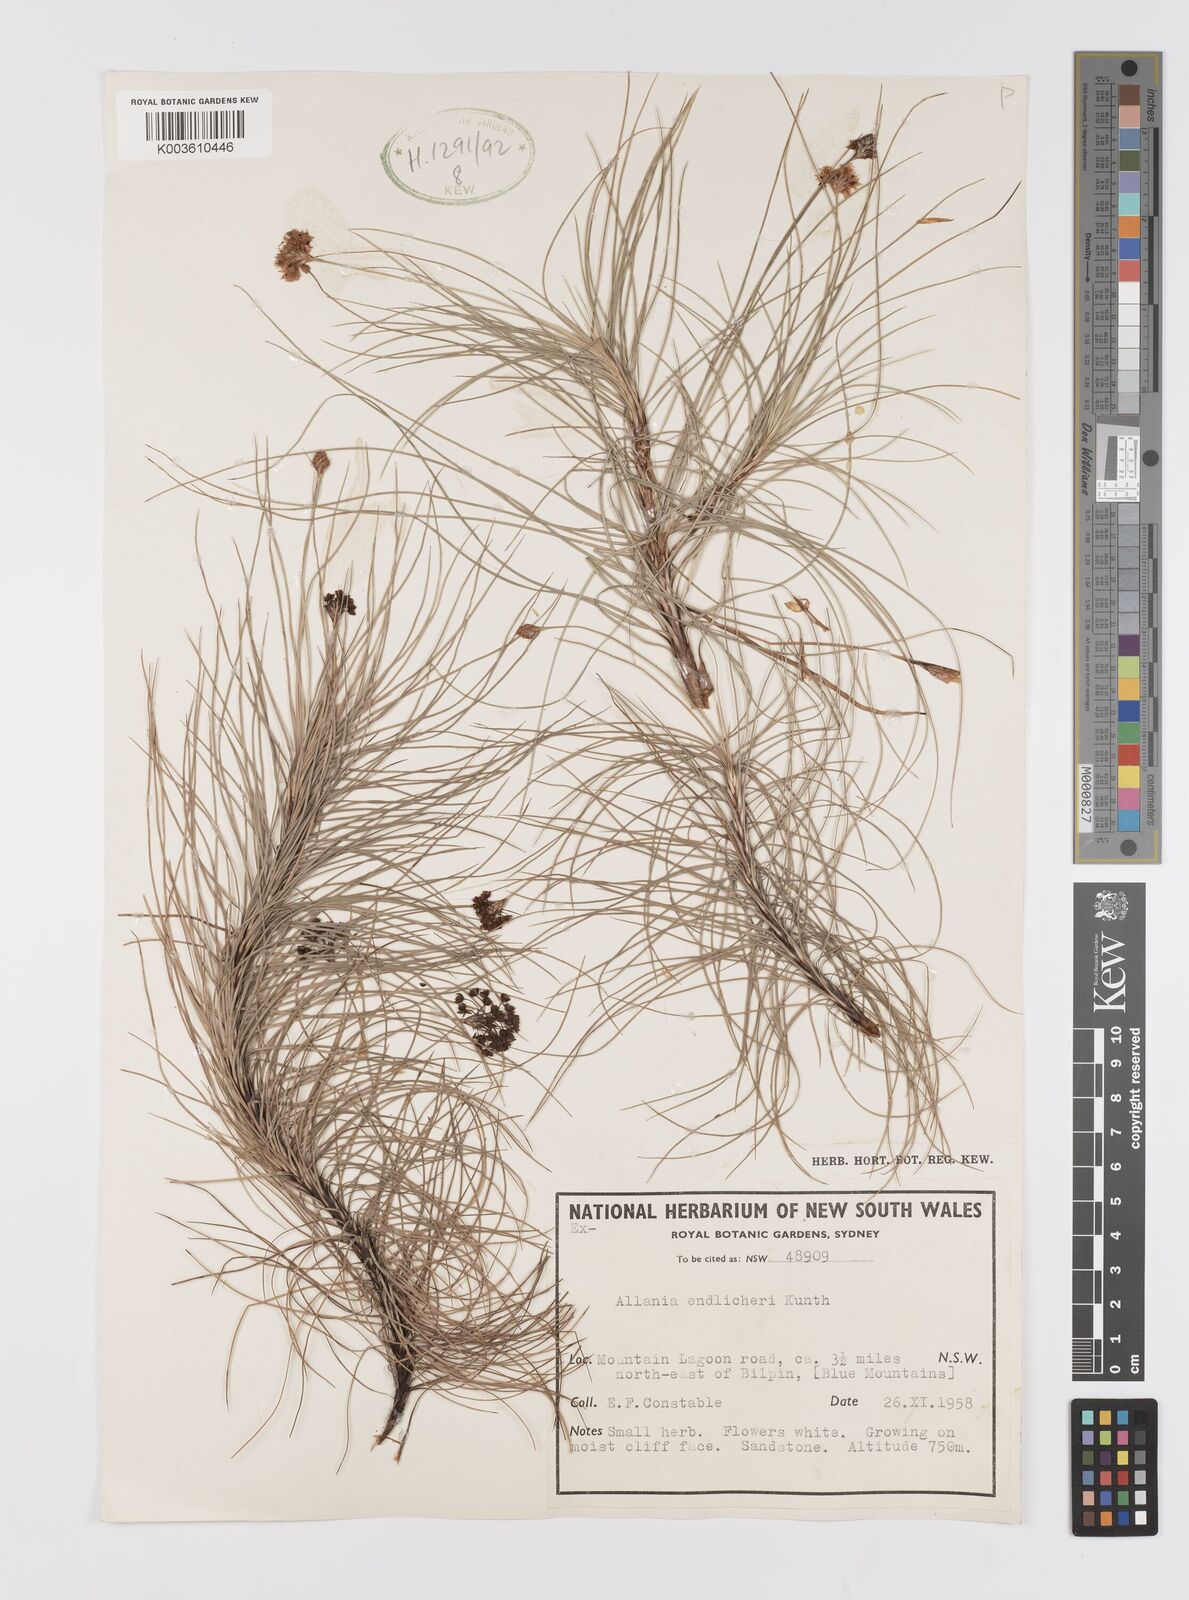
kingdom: Plantae
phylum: Tracheophyta
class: Liliopsida
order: Asparagales
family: Boryaceae
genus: Alania
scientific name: Alania cunninghamii
